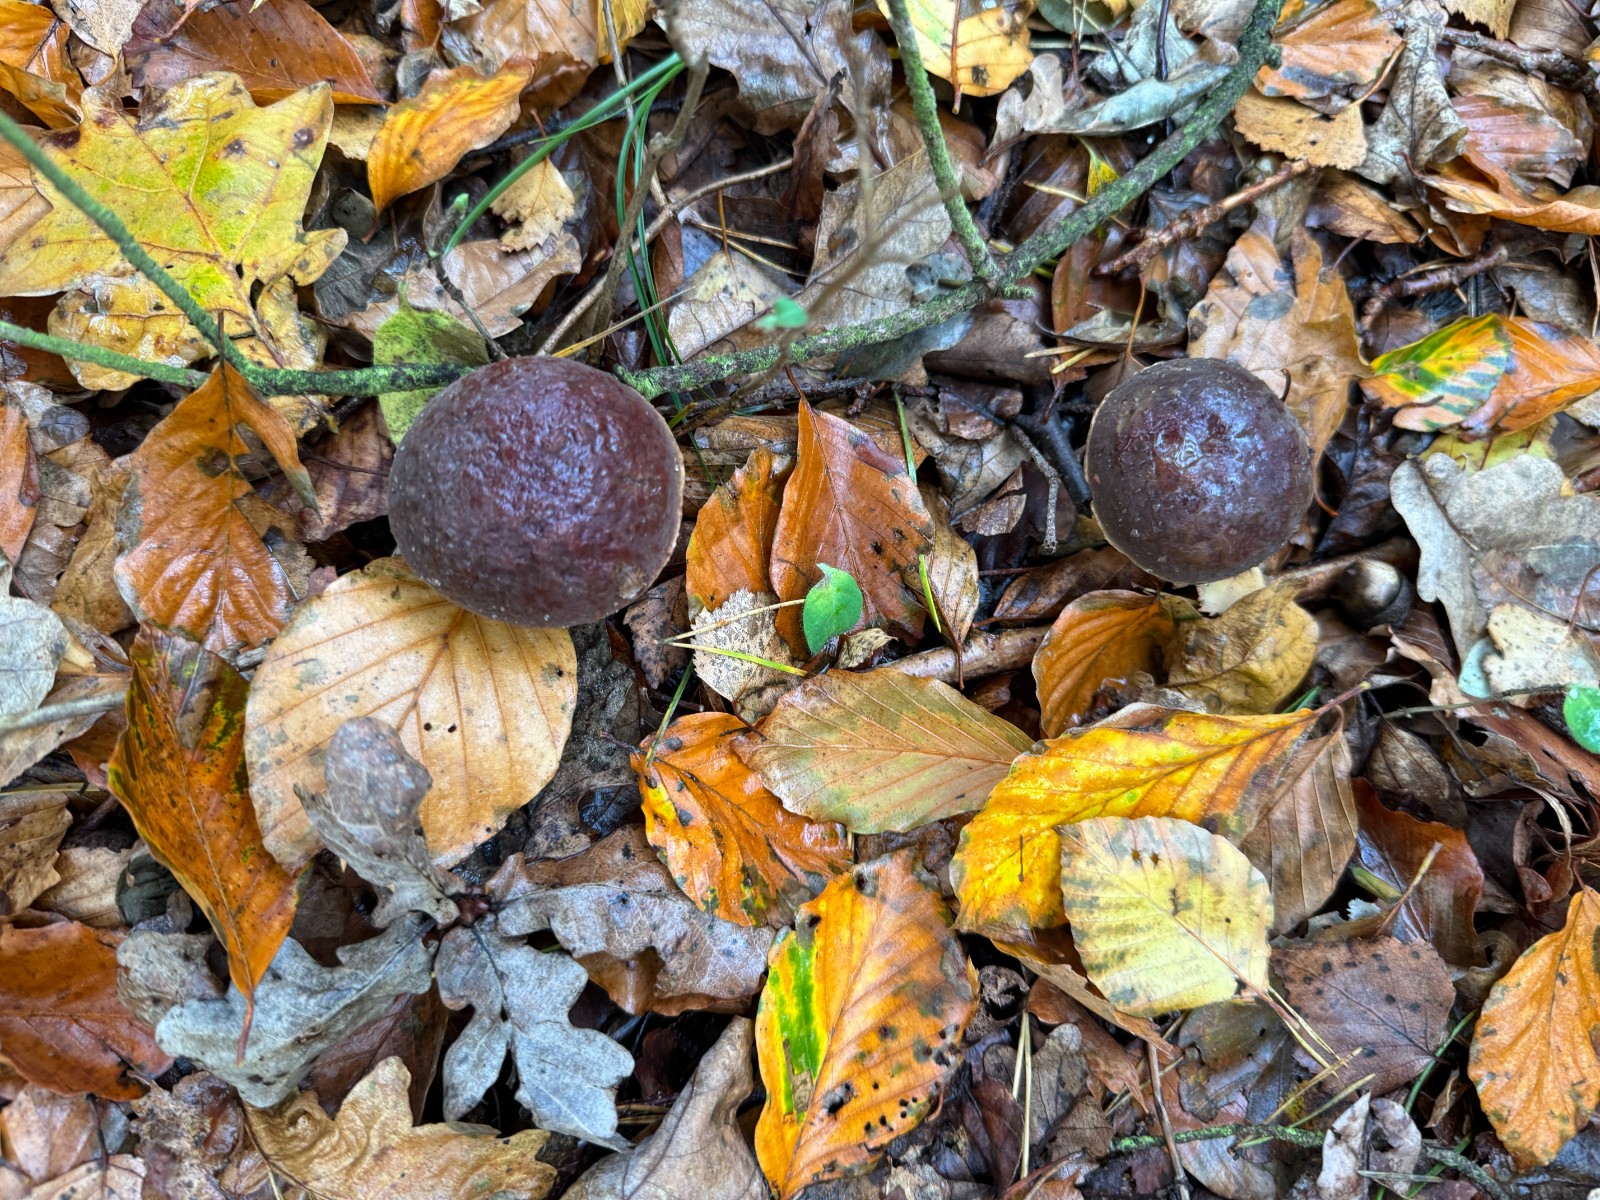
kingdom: Fungi
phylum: Basidiomycota
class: Agaricomycetes
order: Boletales
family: Boletaceae
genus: Xerocomellus
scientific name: Xerocomellus pruinatus
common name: dugget rørhat
